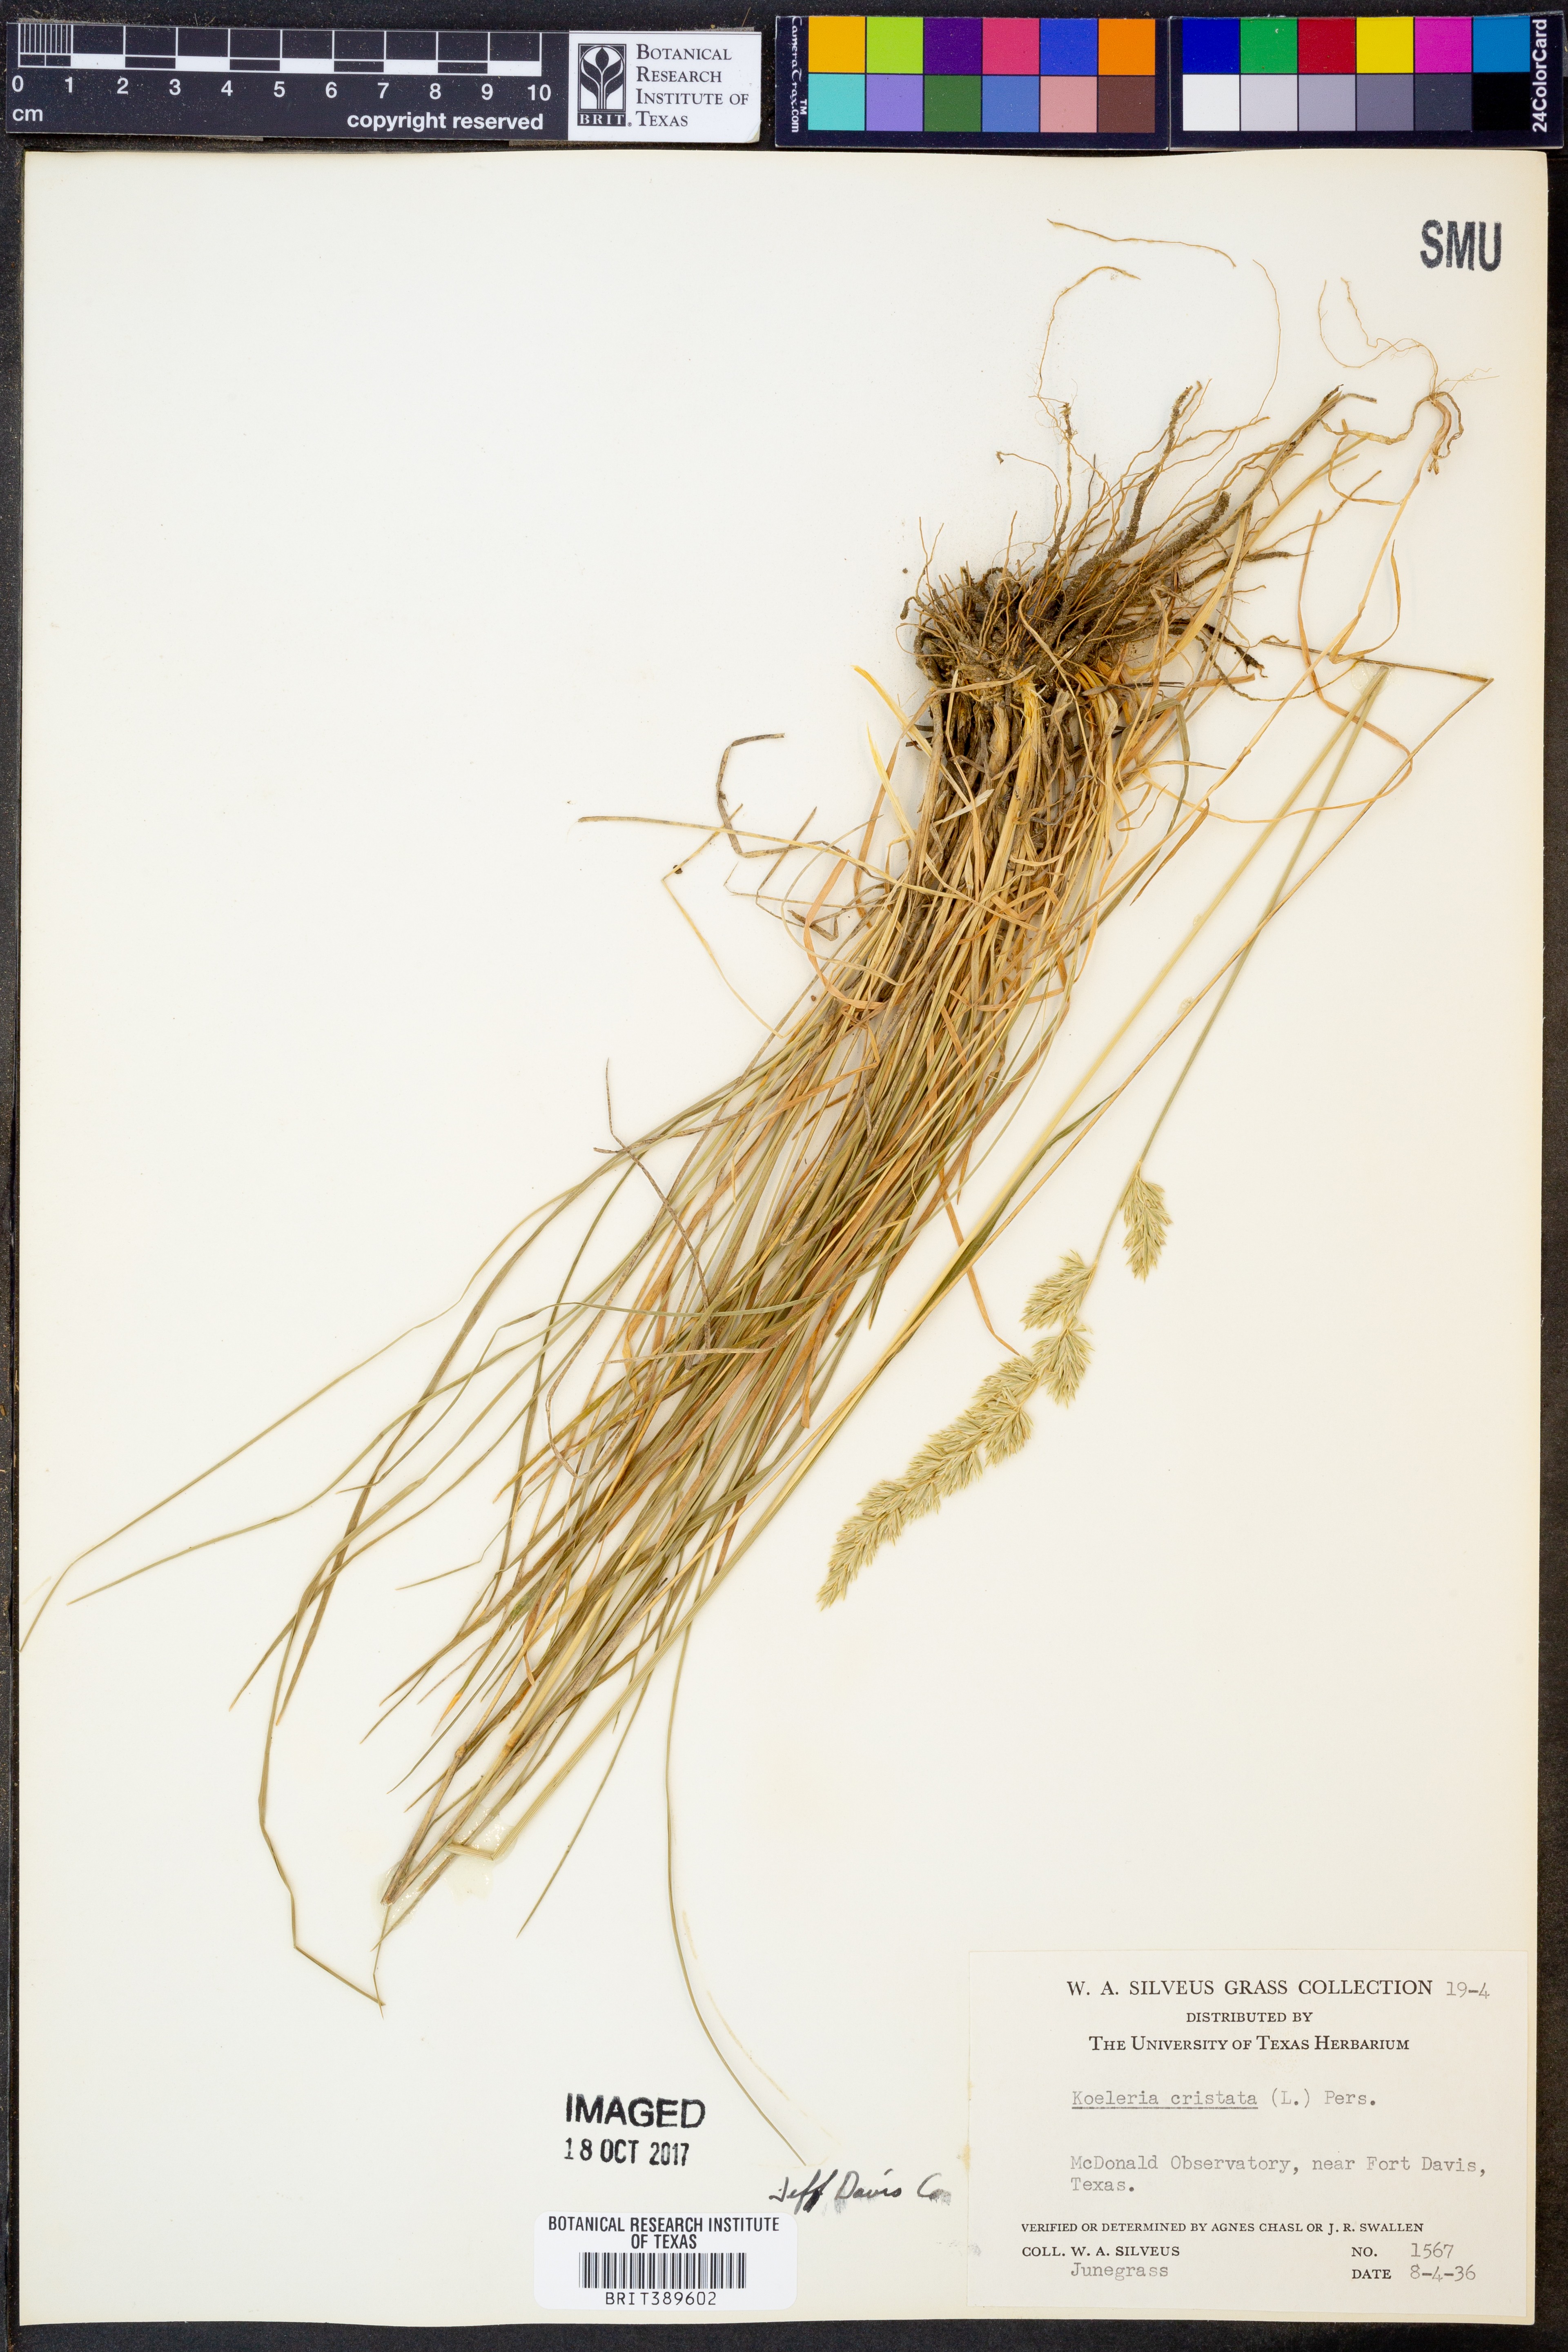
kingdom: Plantae
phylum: Tracheophyta
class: Liliopsida
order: Poales
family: Poaceae
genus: Koeleria
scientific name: Koeleria cristata
